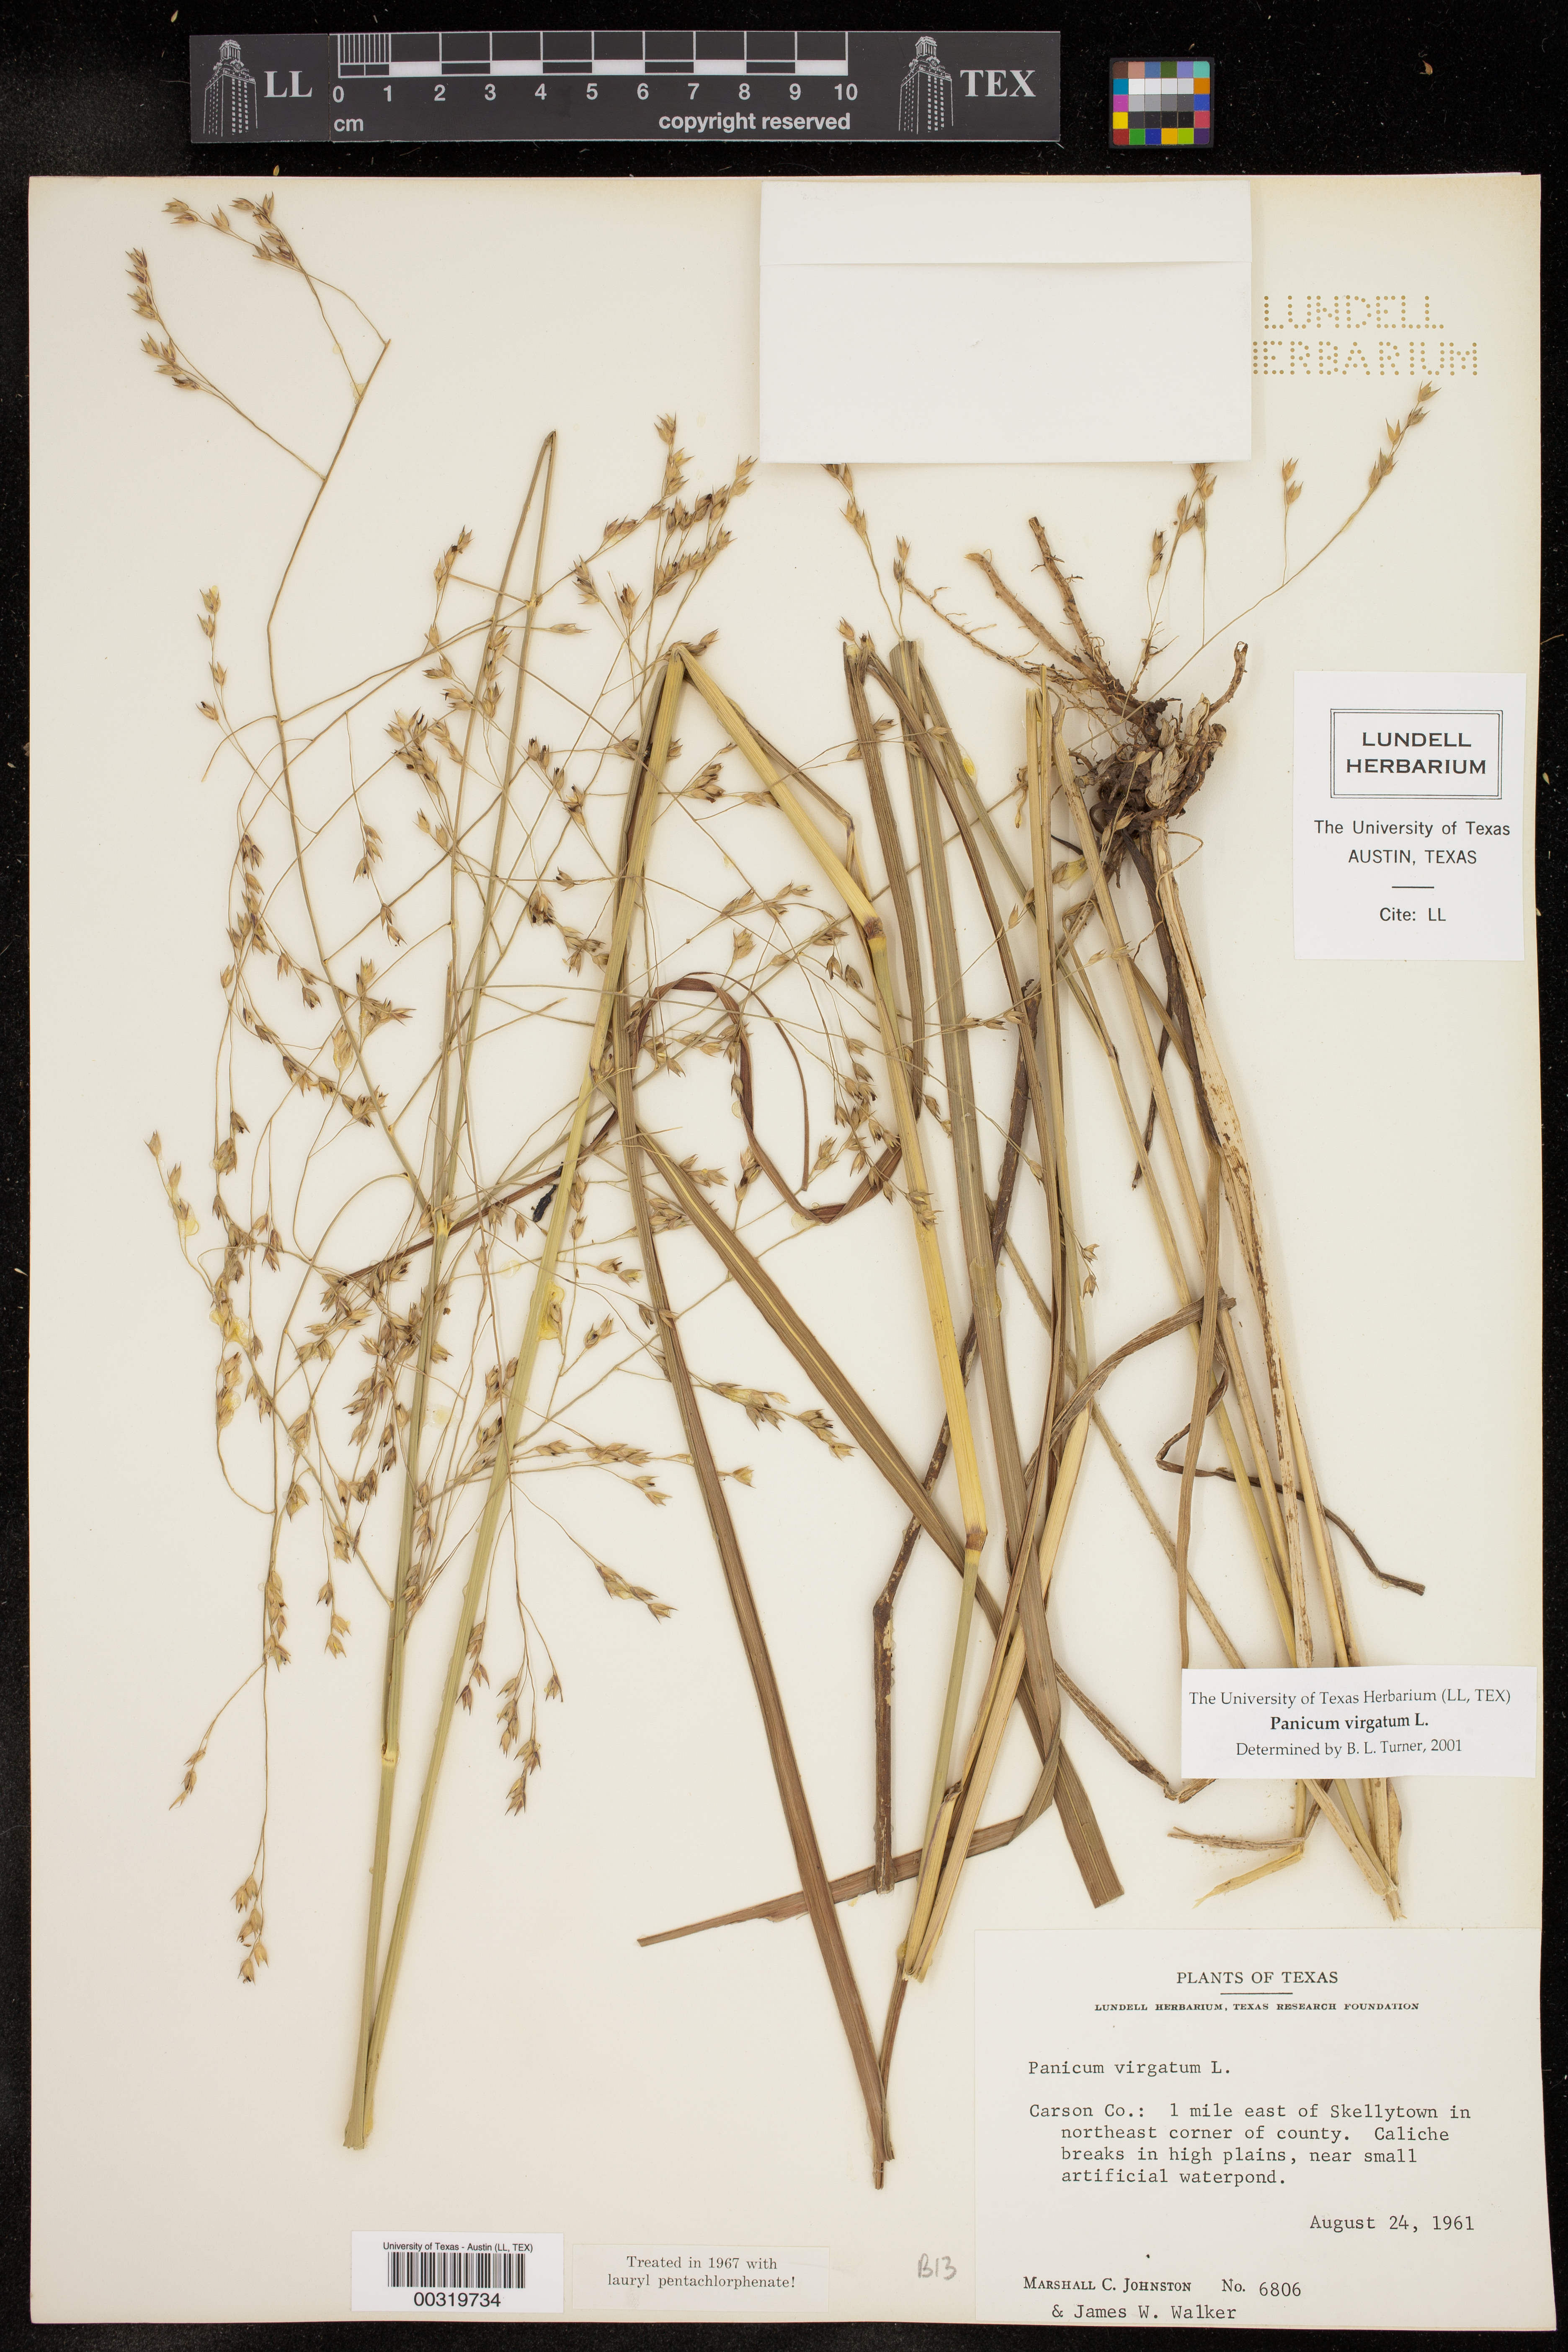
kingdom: Plantae
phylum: Tracheophyta
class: Liliopsida
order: Poales
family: Poaceae
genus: Panicum
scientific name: Panicum virgatum
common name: Switchgrass
